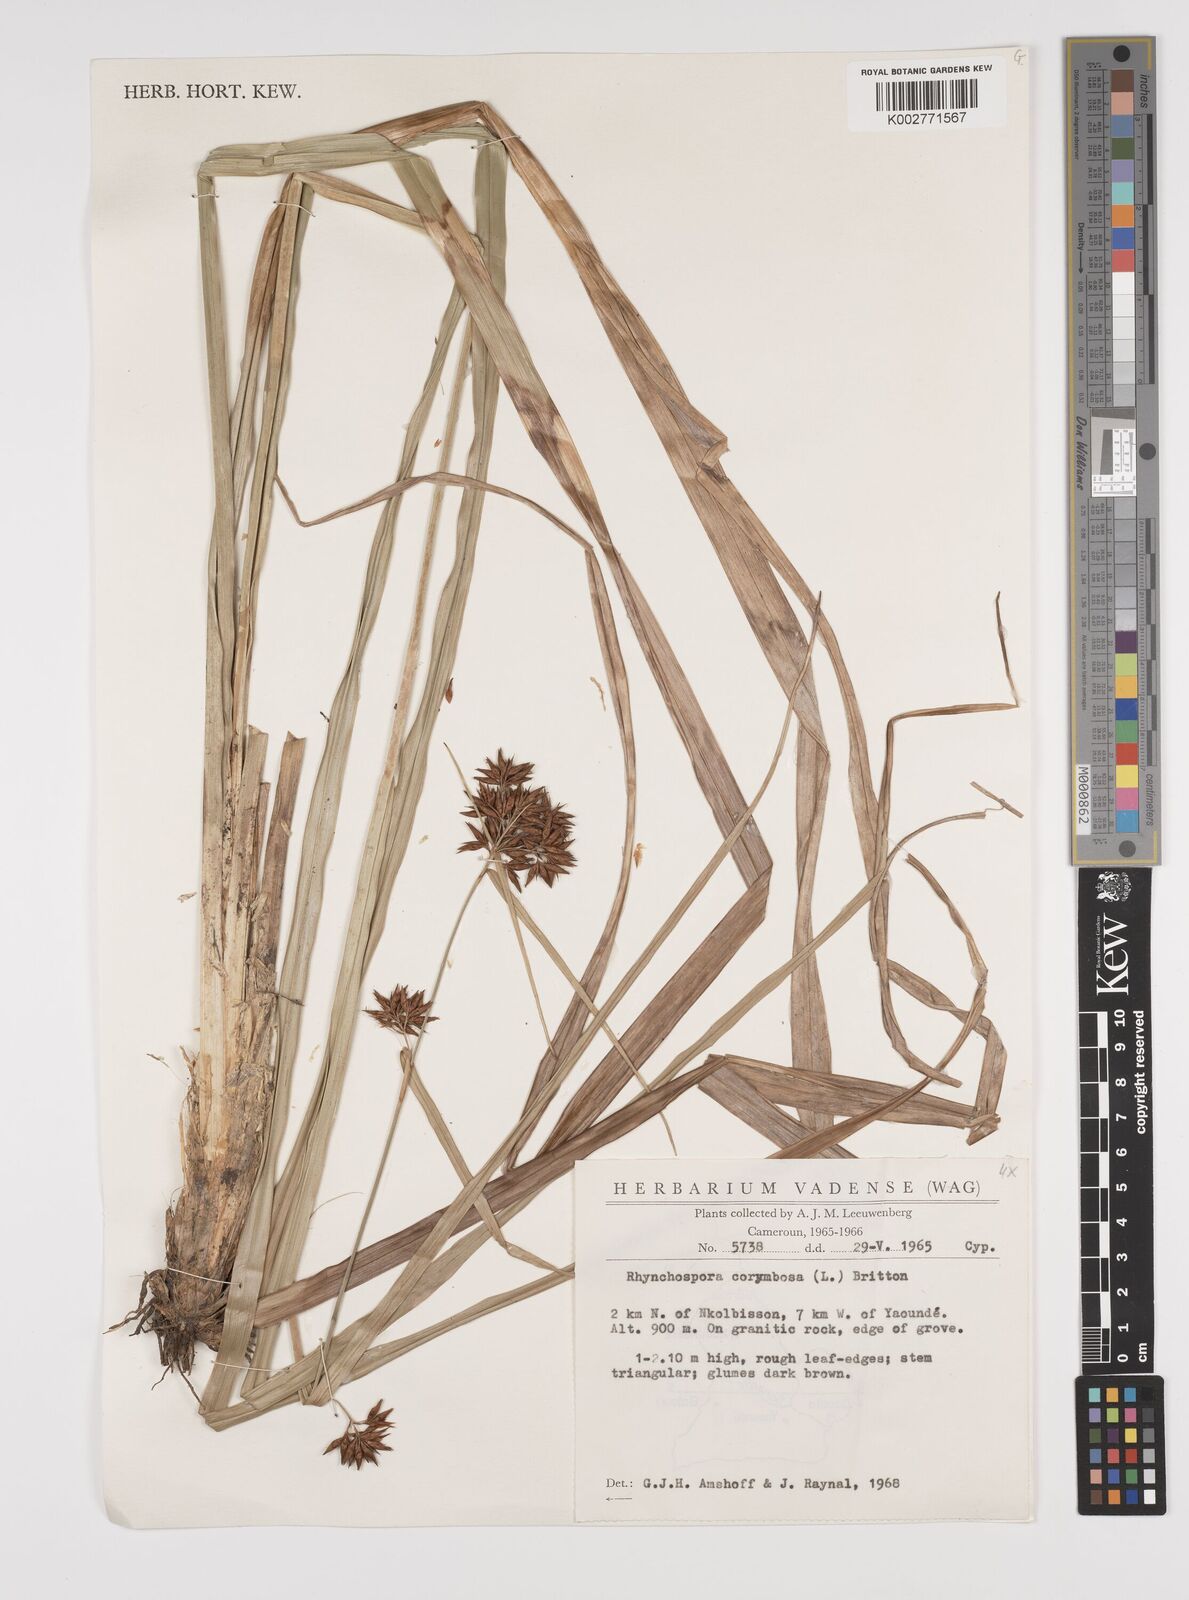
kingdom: Plantae
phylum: Tracheophyta
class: Liliopsida
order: Poales
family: Cyperaceae
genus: Rhynchospora
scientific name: Rhynchospora corymbosa
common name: Golden beak sedge
